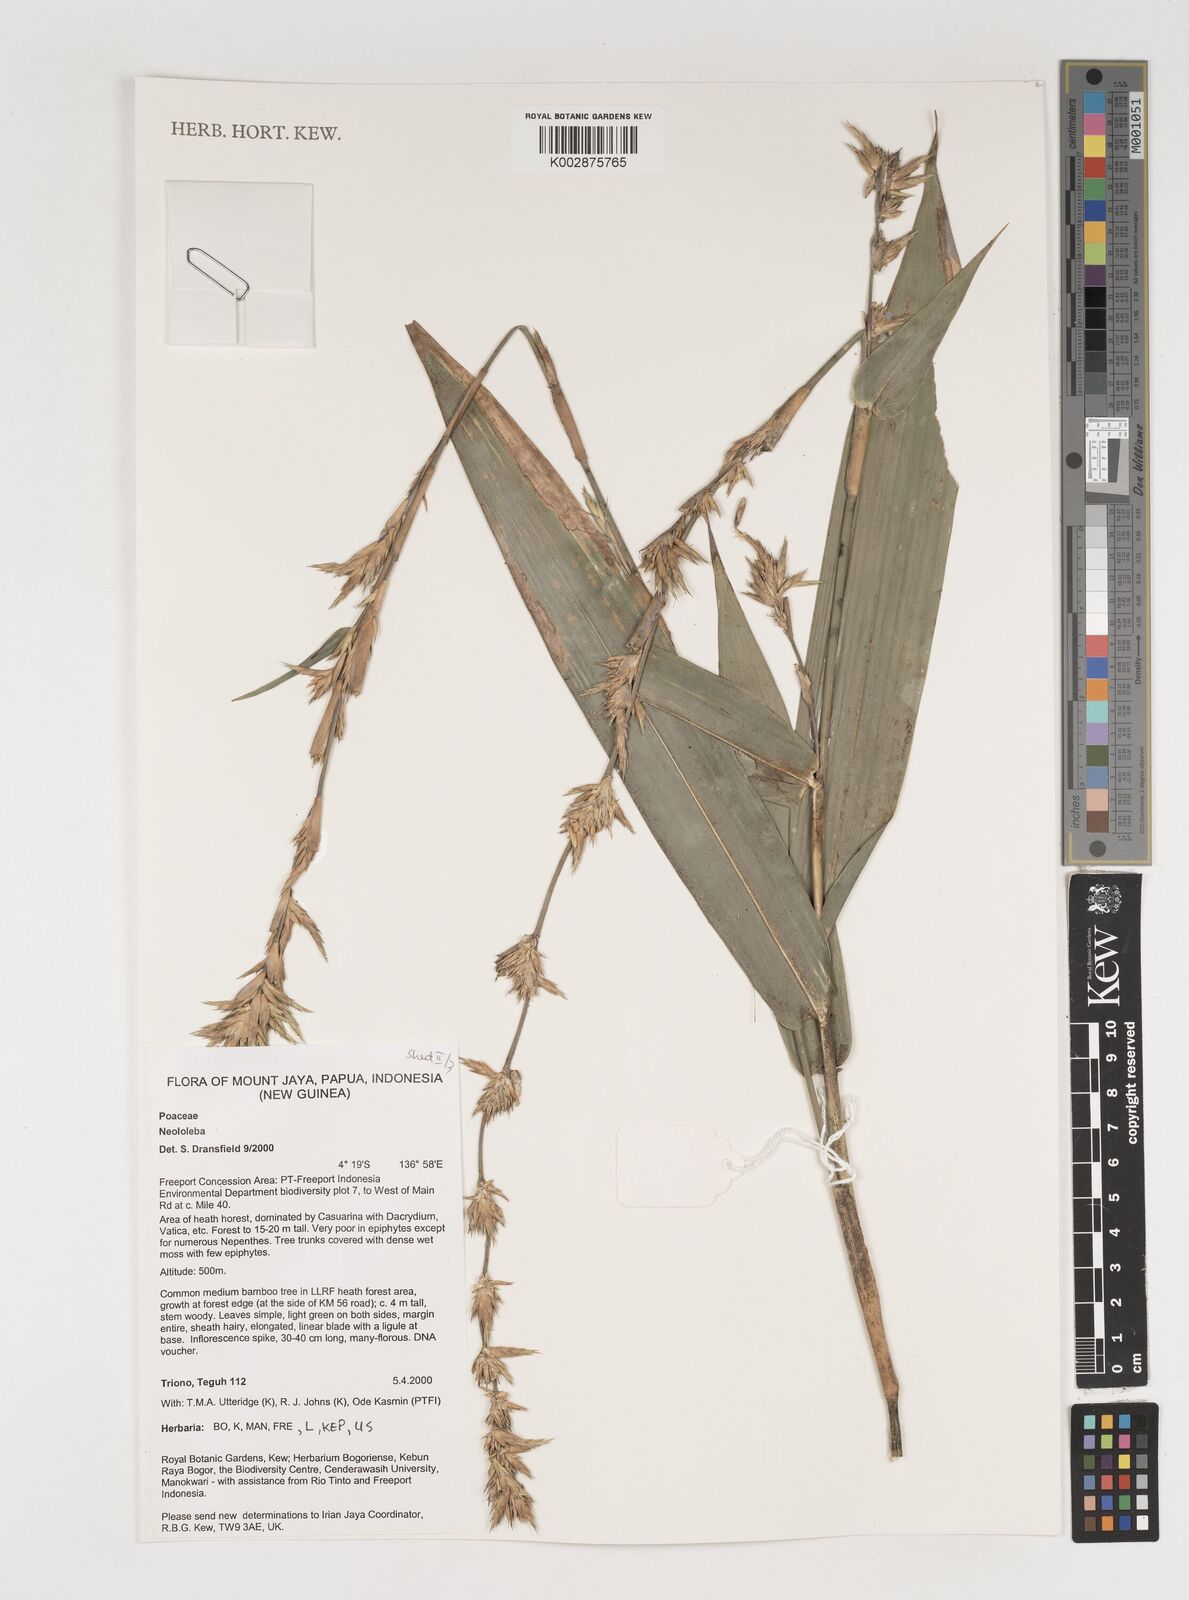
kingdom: Plantae
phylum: Tracheophyta
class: Liliopsida
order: Poales
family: Poaceae
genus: Neololeba
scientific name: Neololeba
